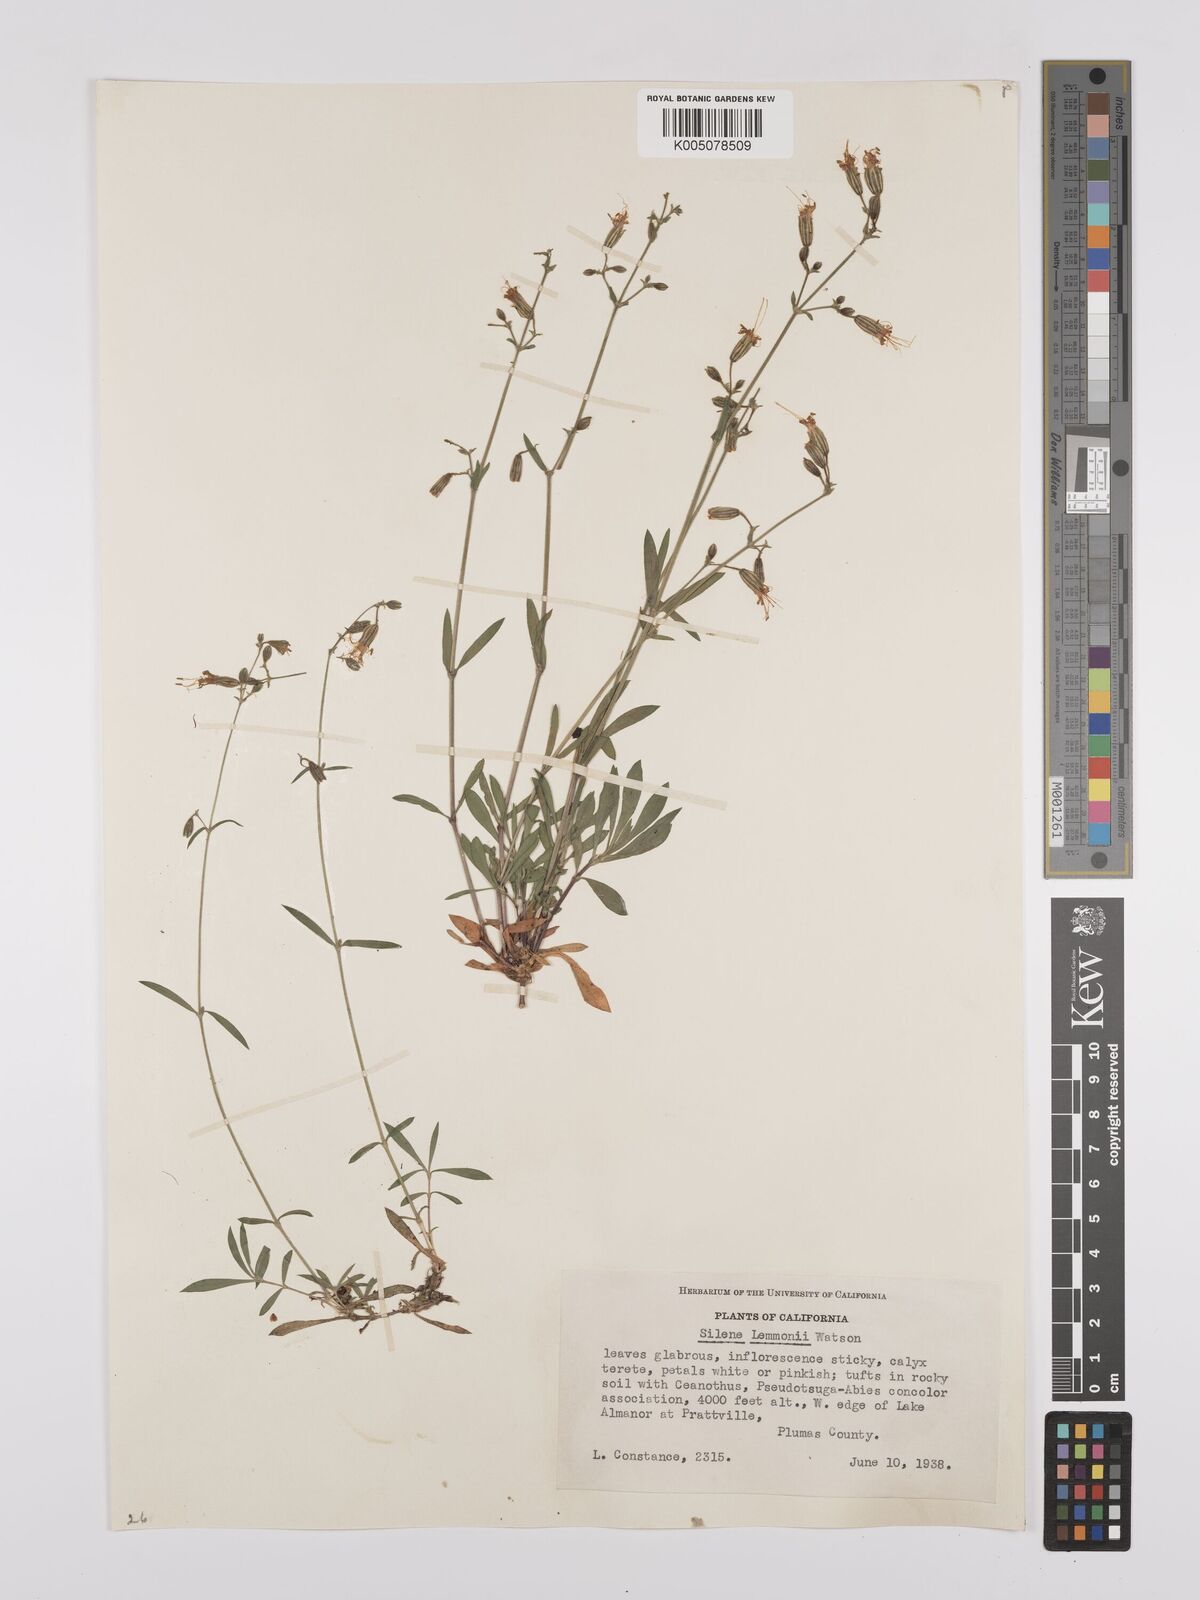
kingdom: Plantae
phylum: Tracheophyta
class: Magnoliopsida
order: Caryophyllales
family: Caryophyllaceae
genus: Silene
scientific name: Silene lemmonii
